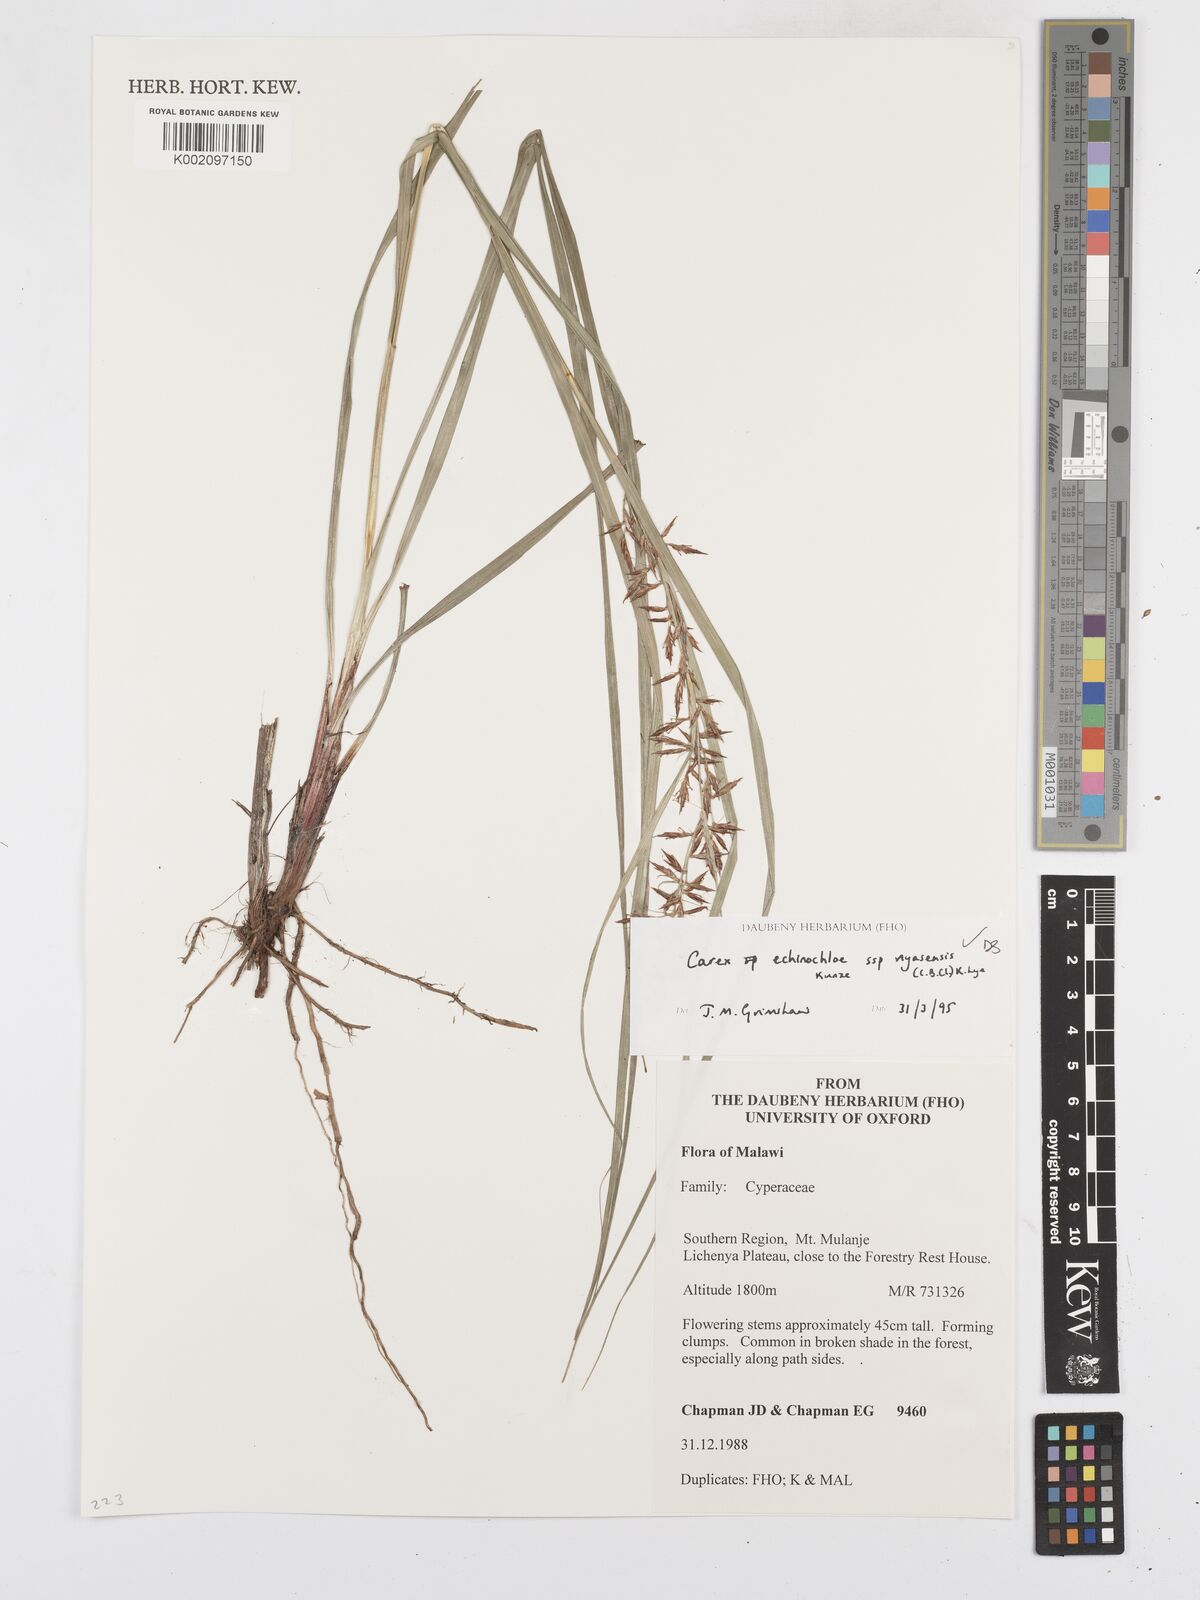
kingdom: Plantae
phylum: Tracheophyta
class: Liliopsida
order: Poales
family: Cyperaceae
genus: Carex
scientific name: Carex echinochloe
